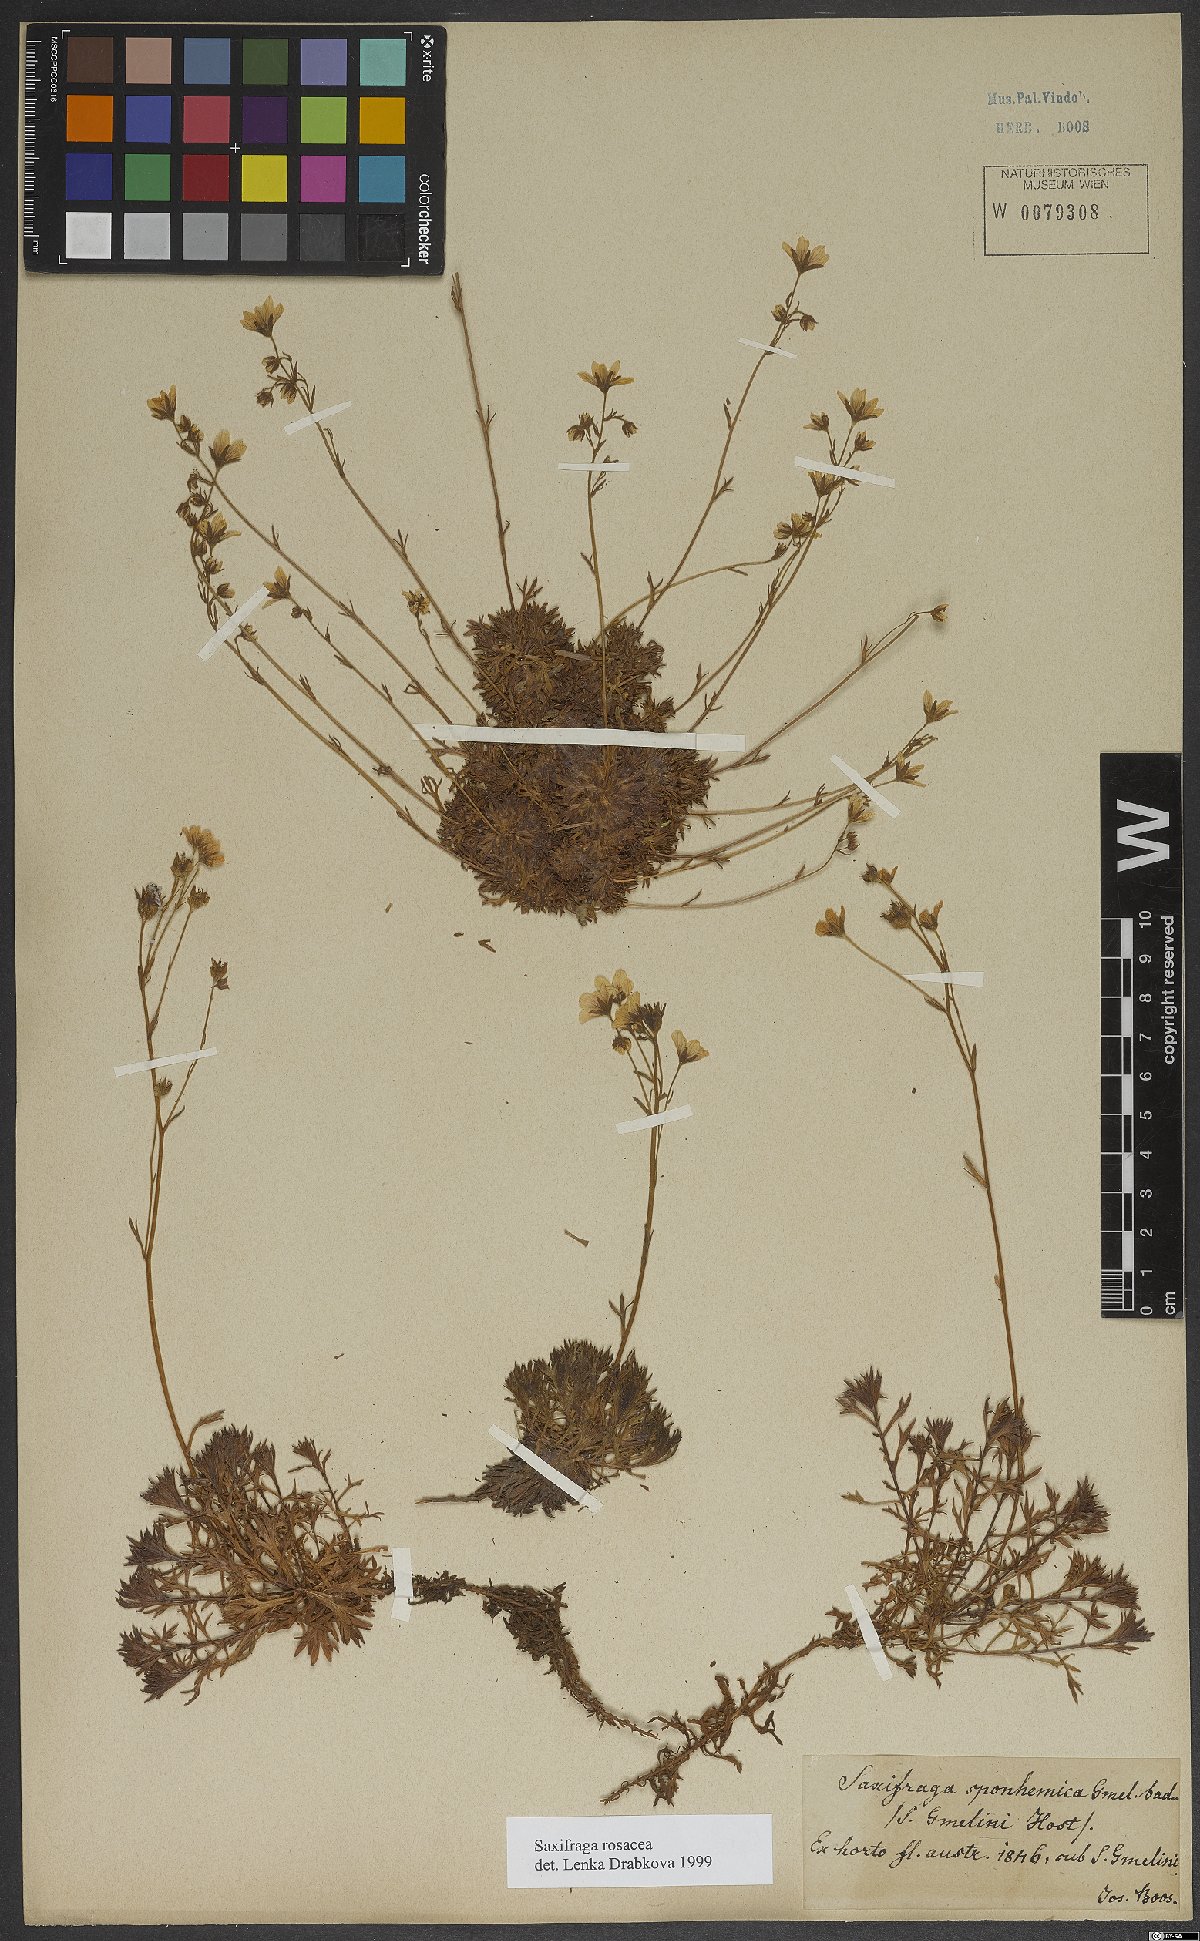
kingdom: Plantae
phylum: Tracheophyta
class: Magnoliopsida
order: Saxifragales
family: Saxifragaceae
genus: Saxifraga
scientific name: Saxifraga rosacea
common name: Irish saxifrage
